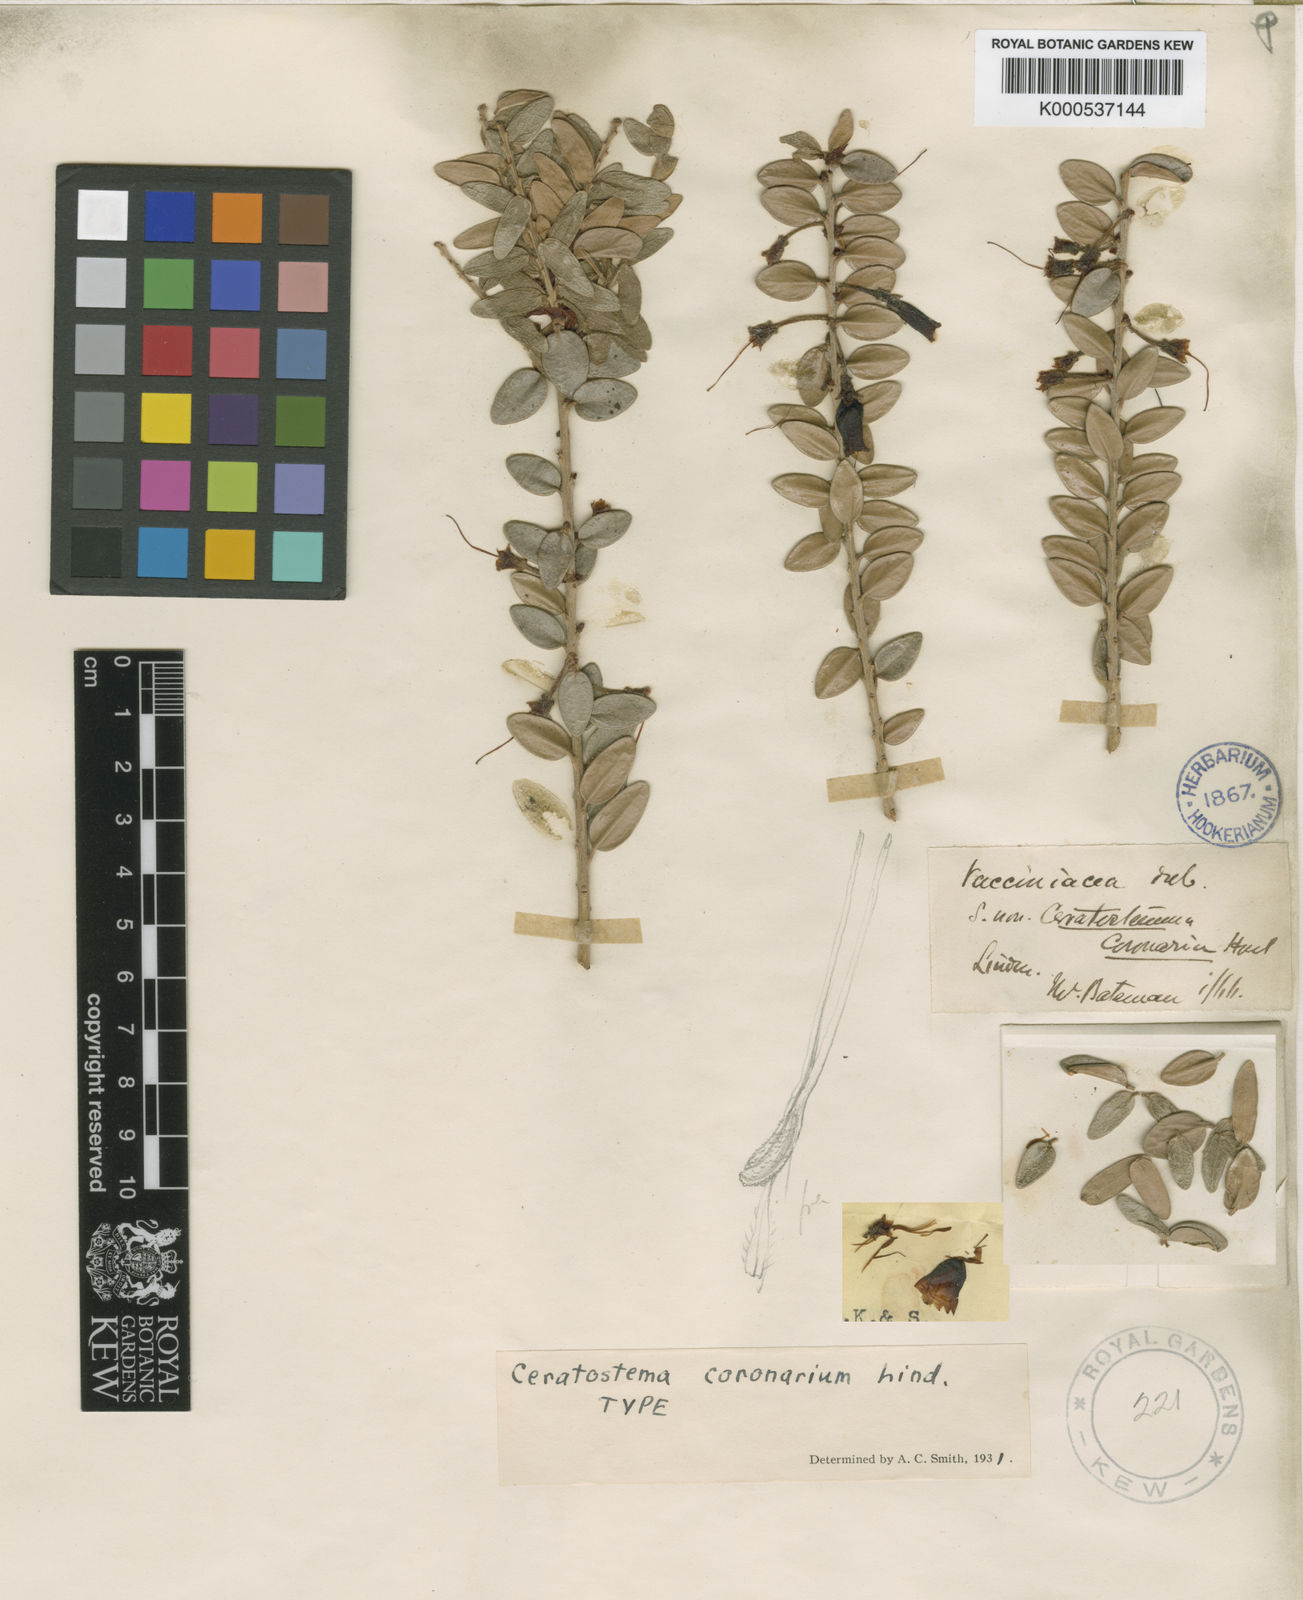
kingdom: Plantae
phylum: Tracheophyta
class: Magnoliopsida
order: Ericales
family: Ericaceae
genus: Pellegrinia
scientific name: Pellegrinia
